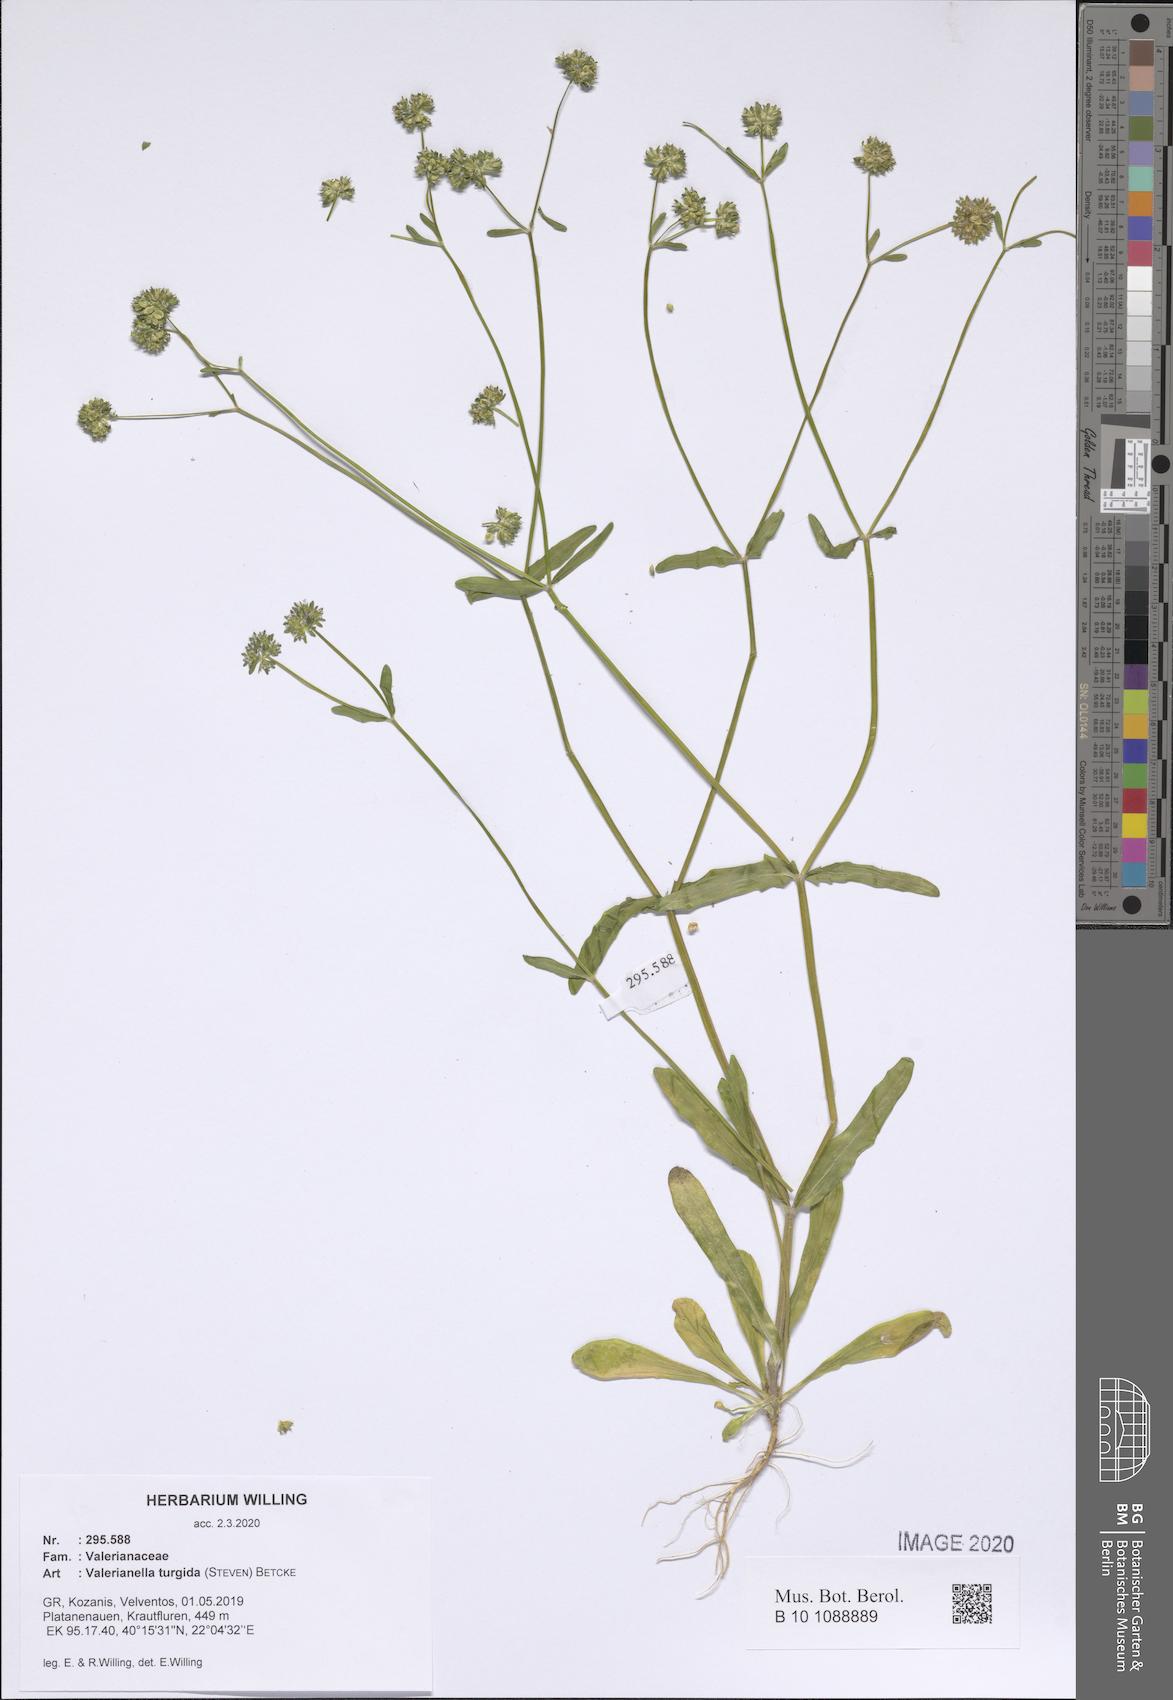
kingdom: Plantae
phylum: Tracheophyta
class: Magnoliopsida
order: Dipsacales
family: Caprifoliaceae
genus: Valerianella
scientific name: Valerianella turgida
